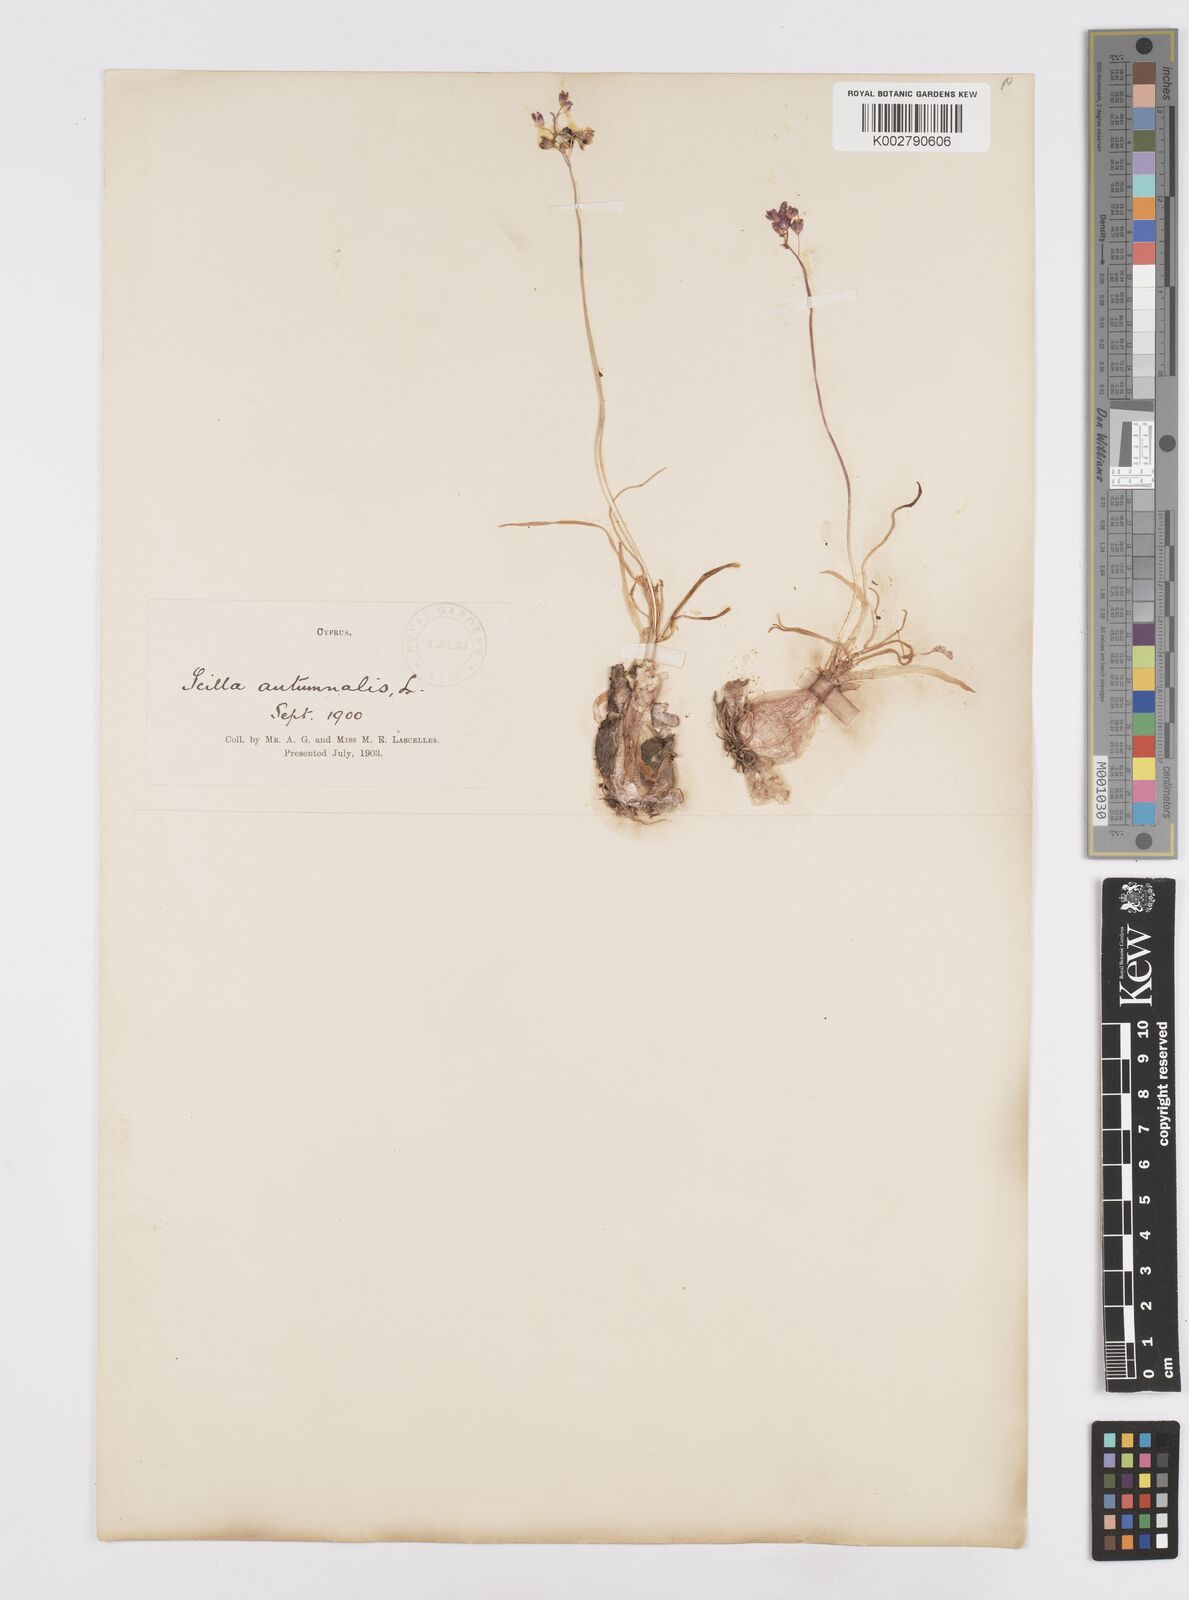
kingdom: Plantae
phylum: Tracheophyta
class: Liliopsida
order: Asparagales
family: Asparagaceae
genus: Prospero
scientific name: Prospero autumnale
